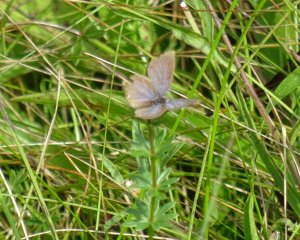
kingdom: Animalia
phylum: Arthropoda
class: Insecta
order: Lepidoptera
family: Lycaenidae
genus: Elkalyce
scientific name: Elkalyce comyntas
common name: Eastern Tailed-Blue
